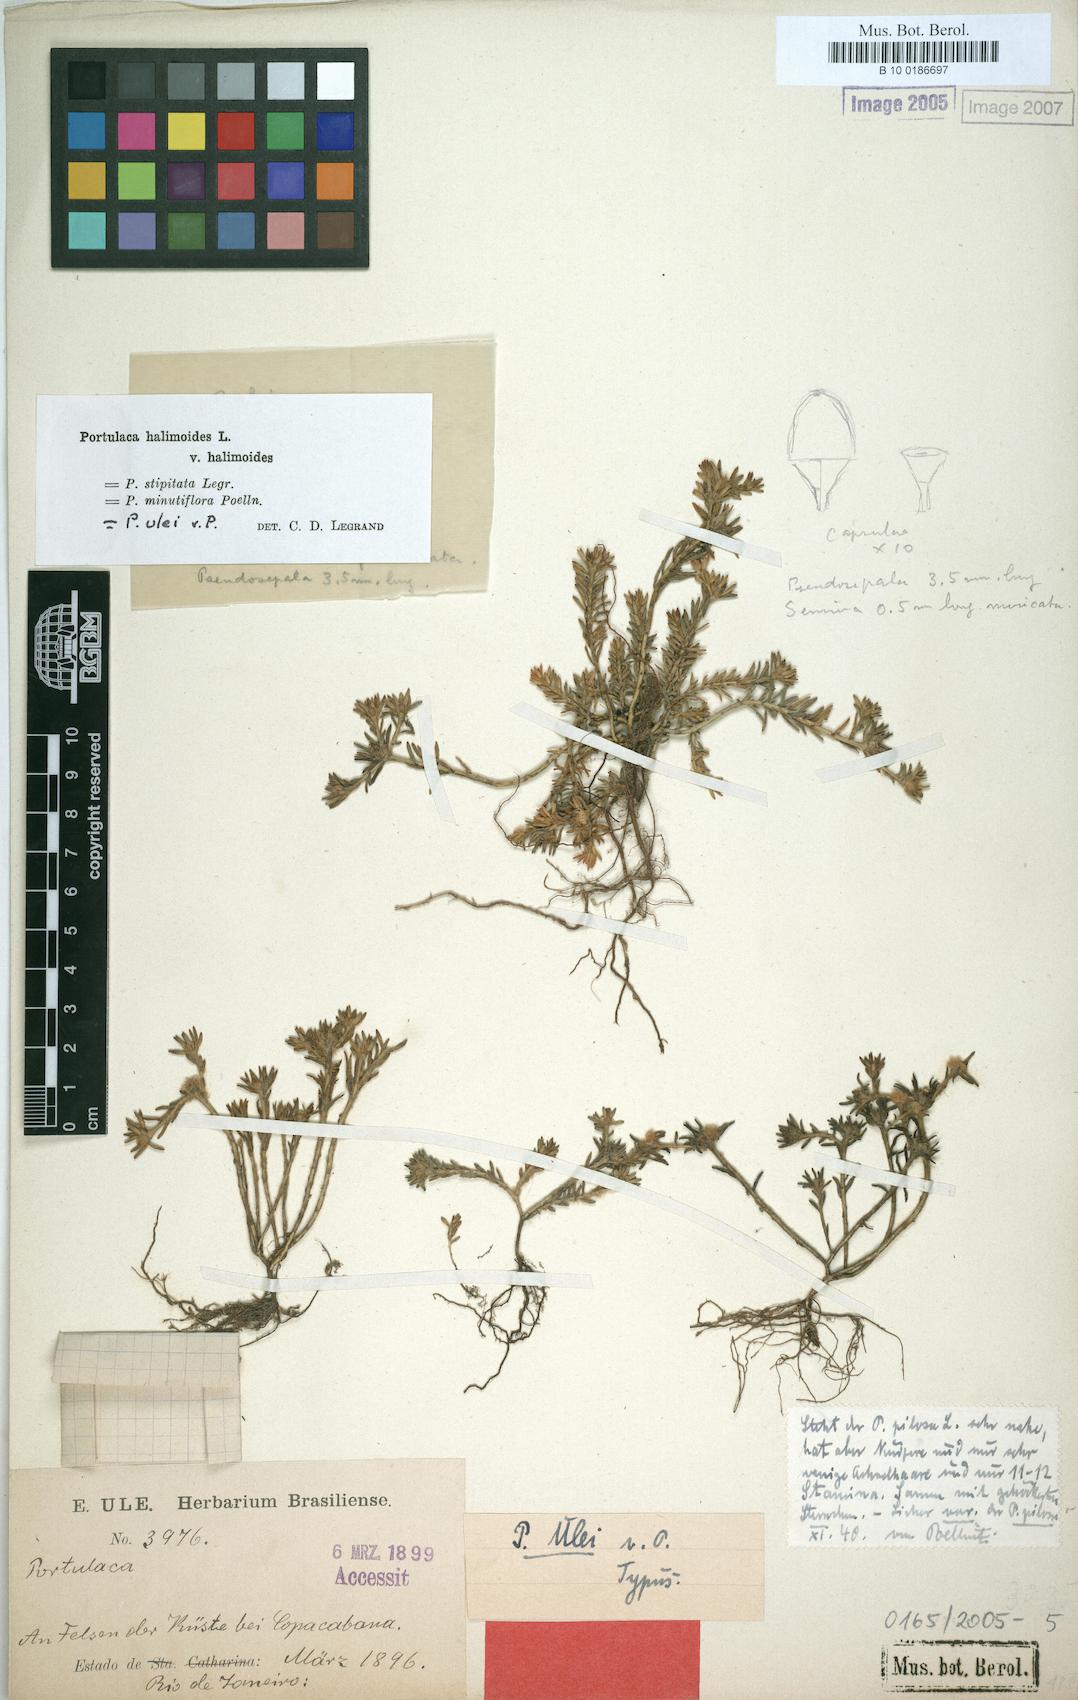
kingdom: Plantae
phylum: Tracheophyta
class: Magnoliopsida
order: Caryophyllales
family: Portulacaceae
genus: Portulaca
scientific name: Portulaca halimoides
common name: Silk cotton purslane
